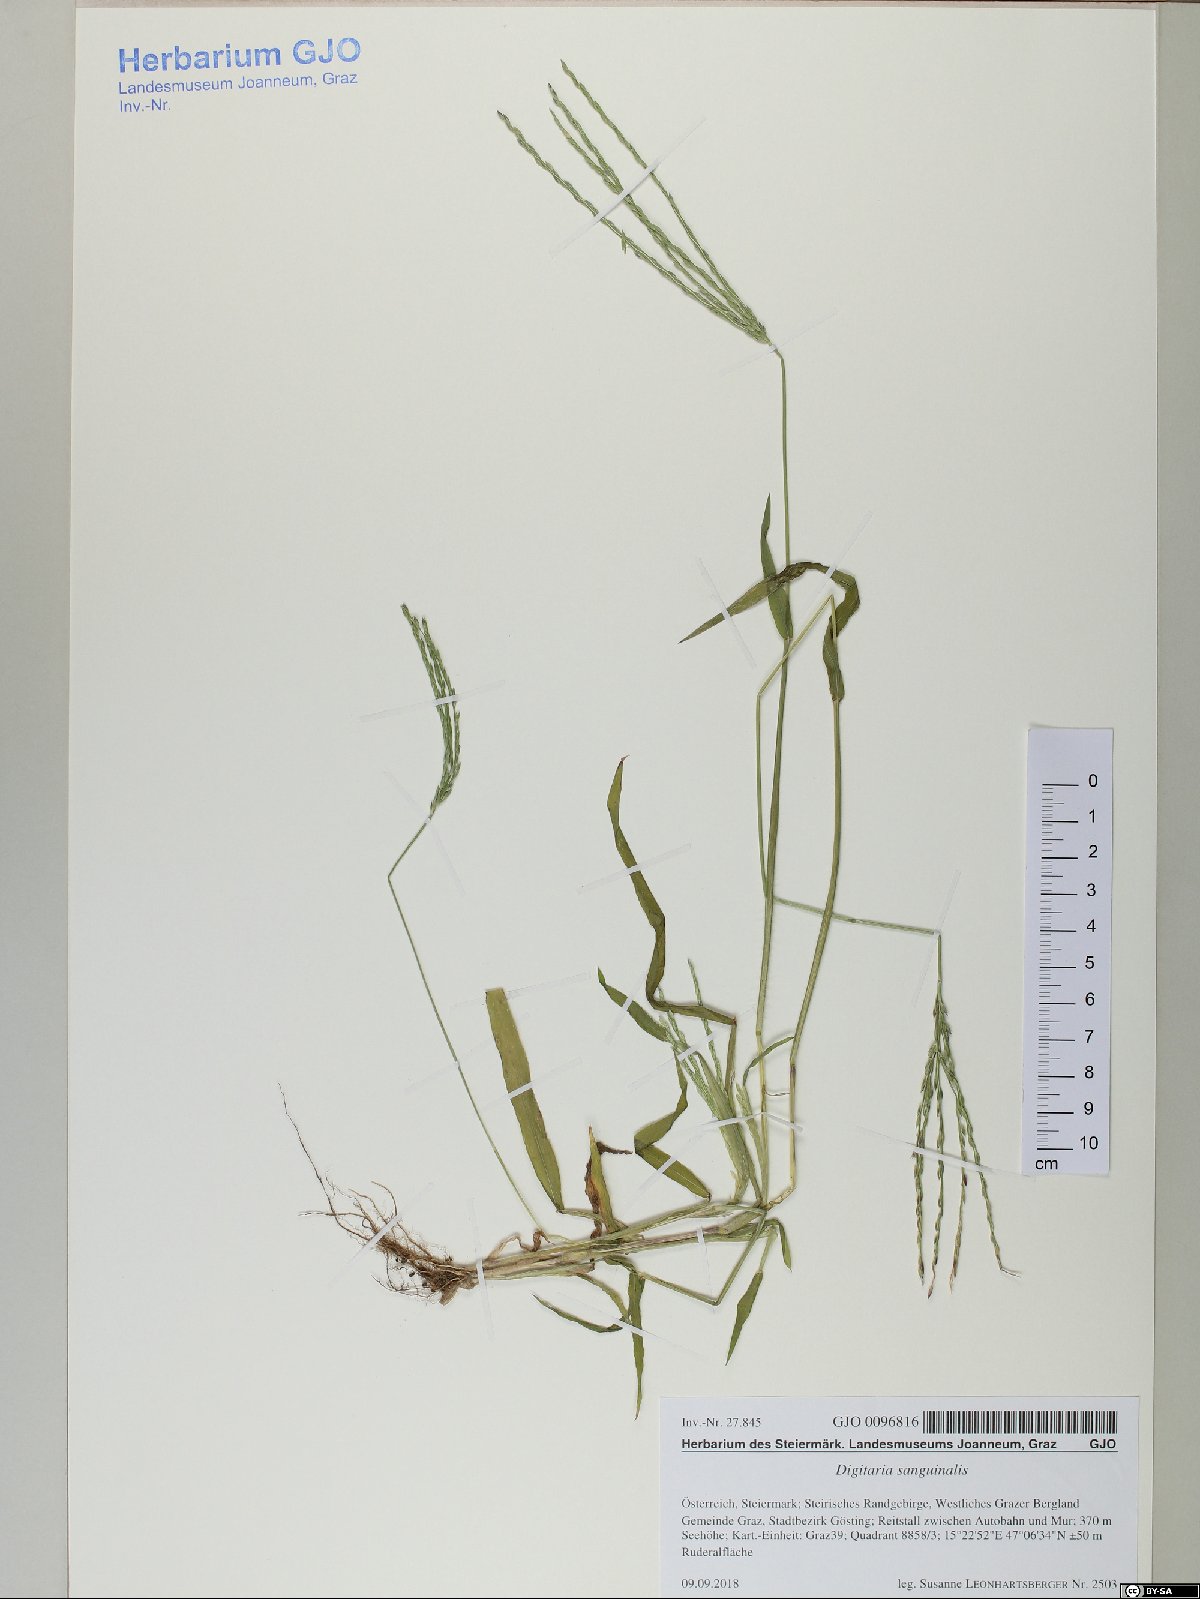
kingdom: Plantae
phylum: Tracheophyta
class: Liliopsida
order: Poales
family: Poaceae
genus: Digitaria
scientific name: Digitaria sanguinalis
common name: Hairy crabgrass
